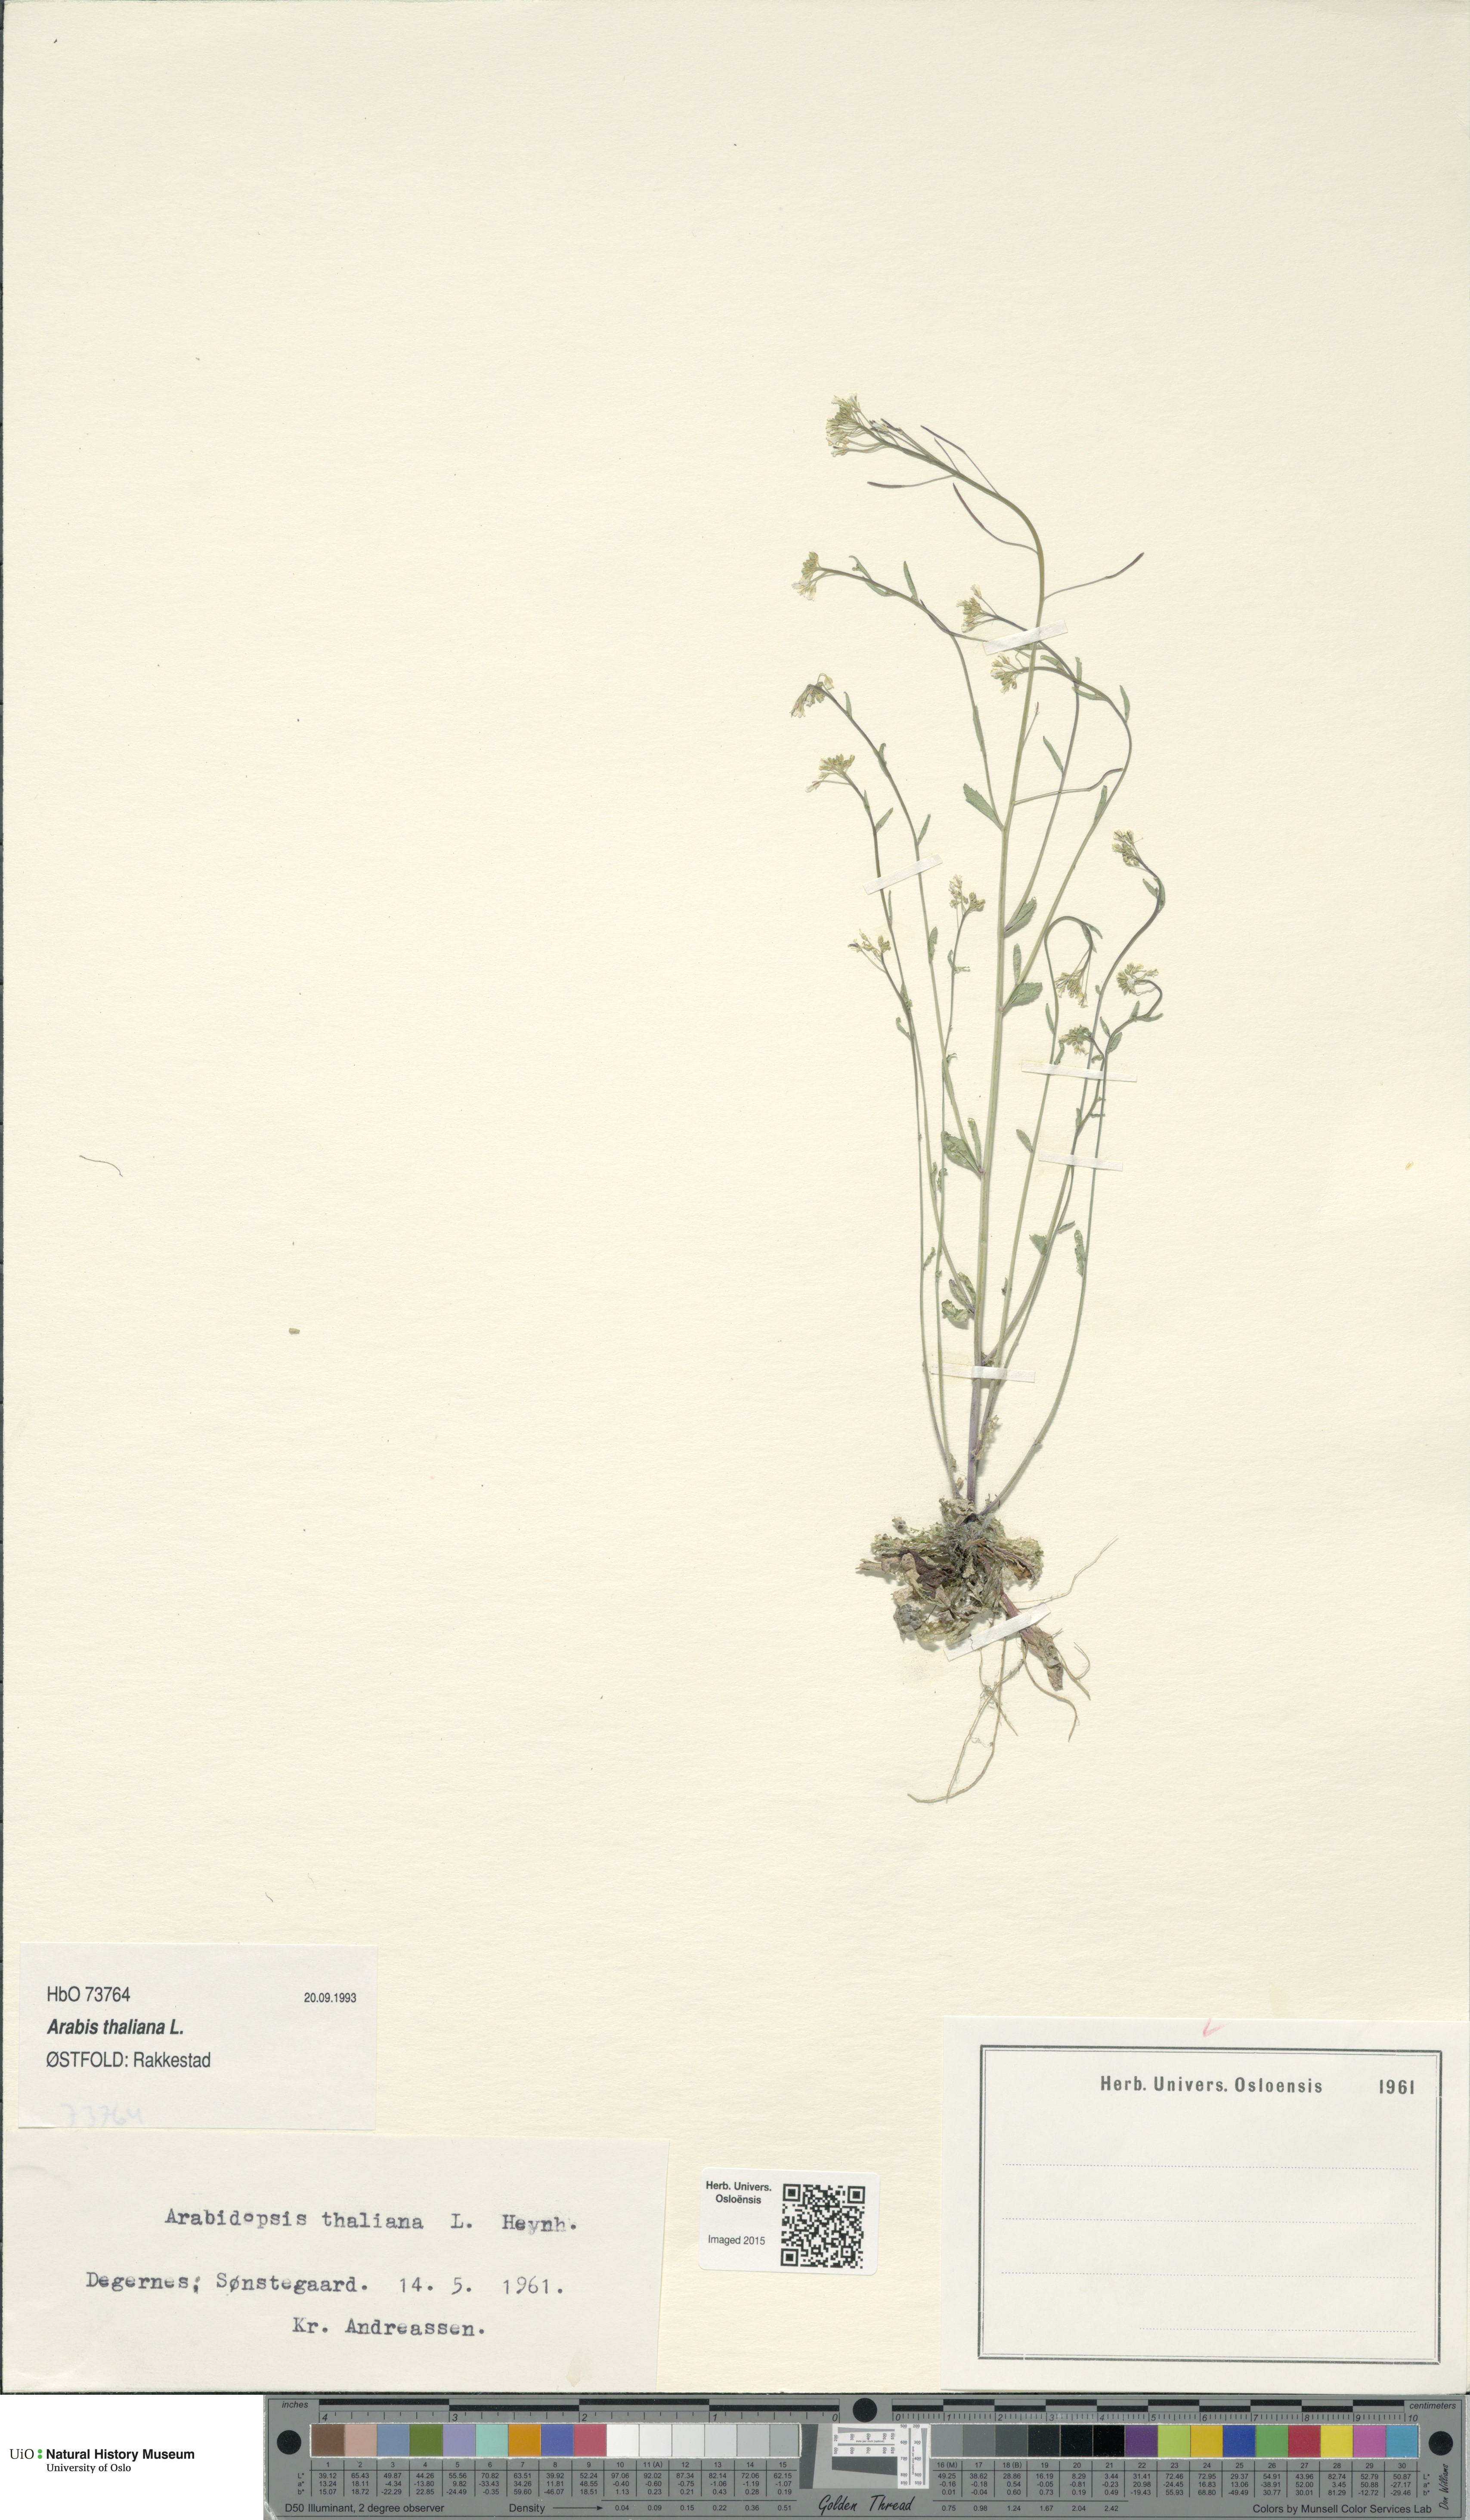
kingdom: Plantae
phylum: Tracheophyta
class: Magnoliopsida
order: Brassicales
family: Brassicaceae
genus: Arabidopsis
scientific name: Arabidopsis thaliana
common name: Thale cress
